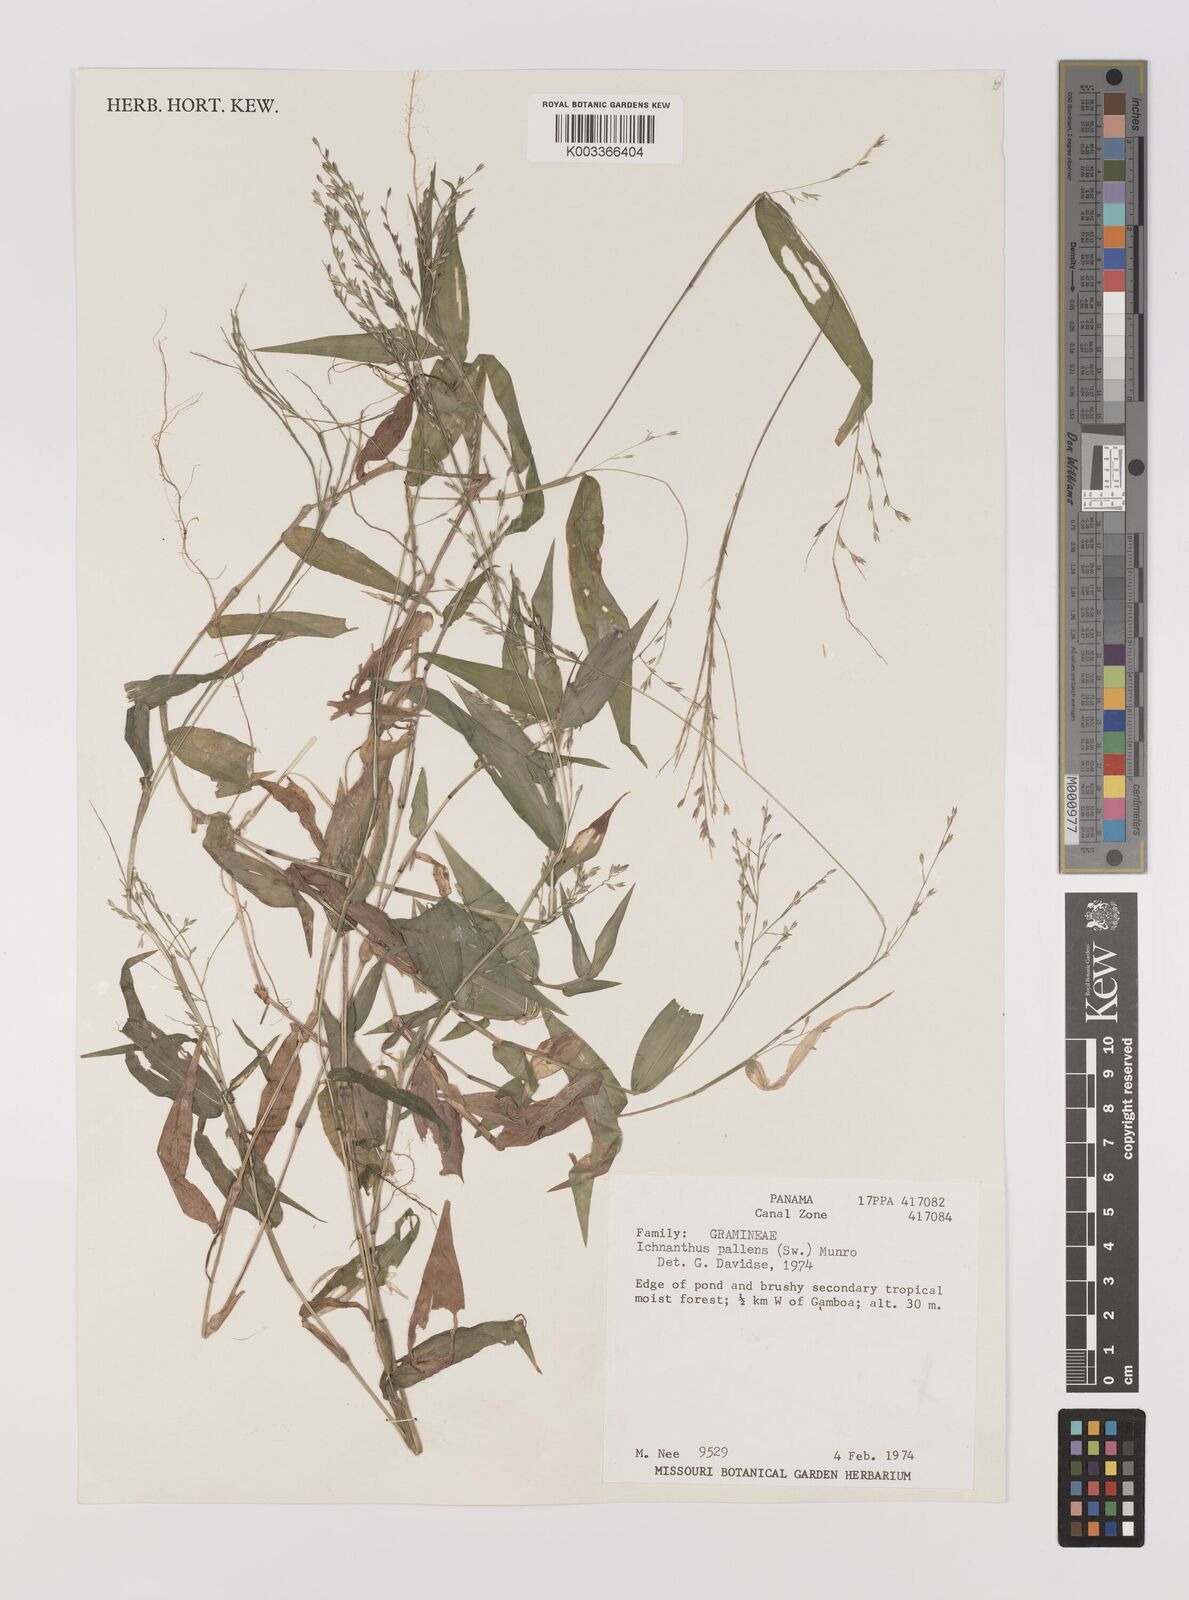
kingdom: Plantae
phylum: Tracheophyta
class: Liliopsida
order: Poales
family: Poaceae
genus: Ichnanthus
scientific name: Ichnanthus pallens
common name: Water grass
